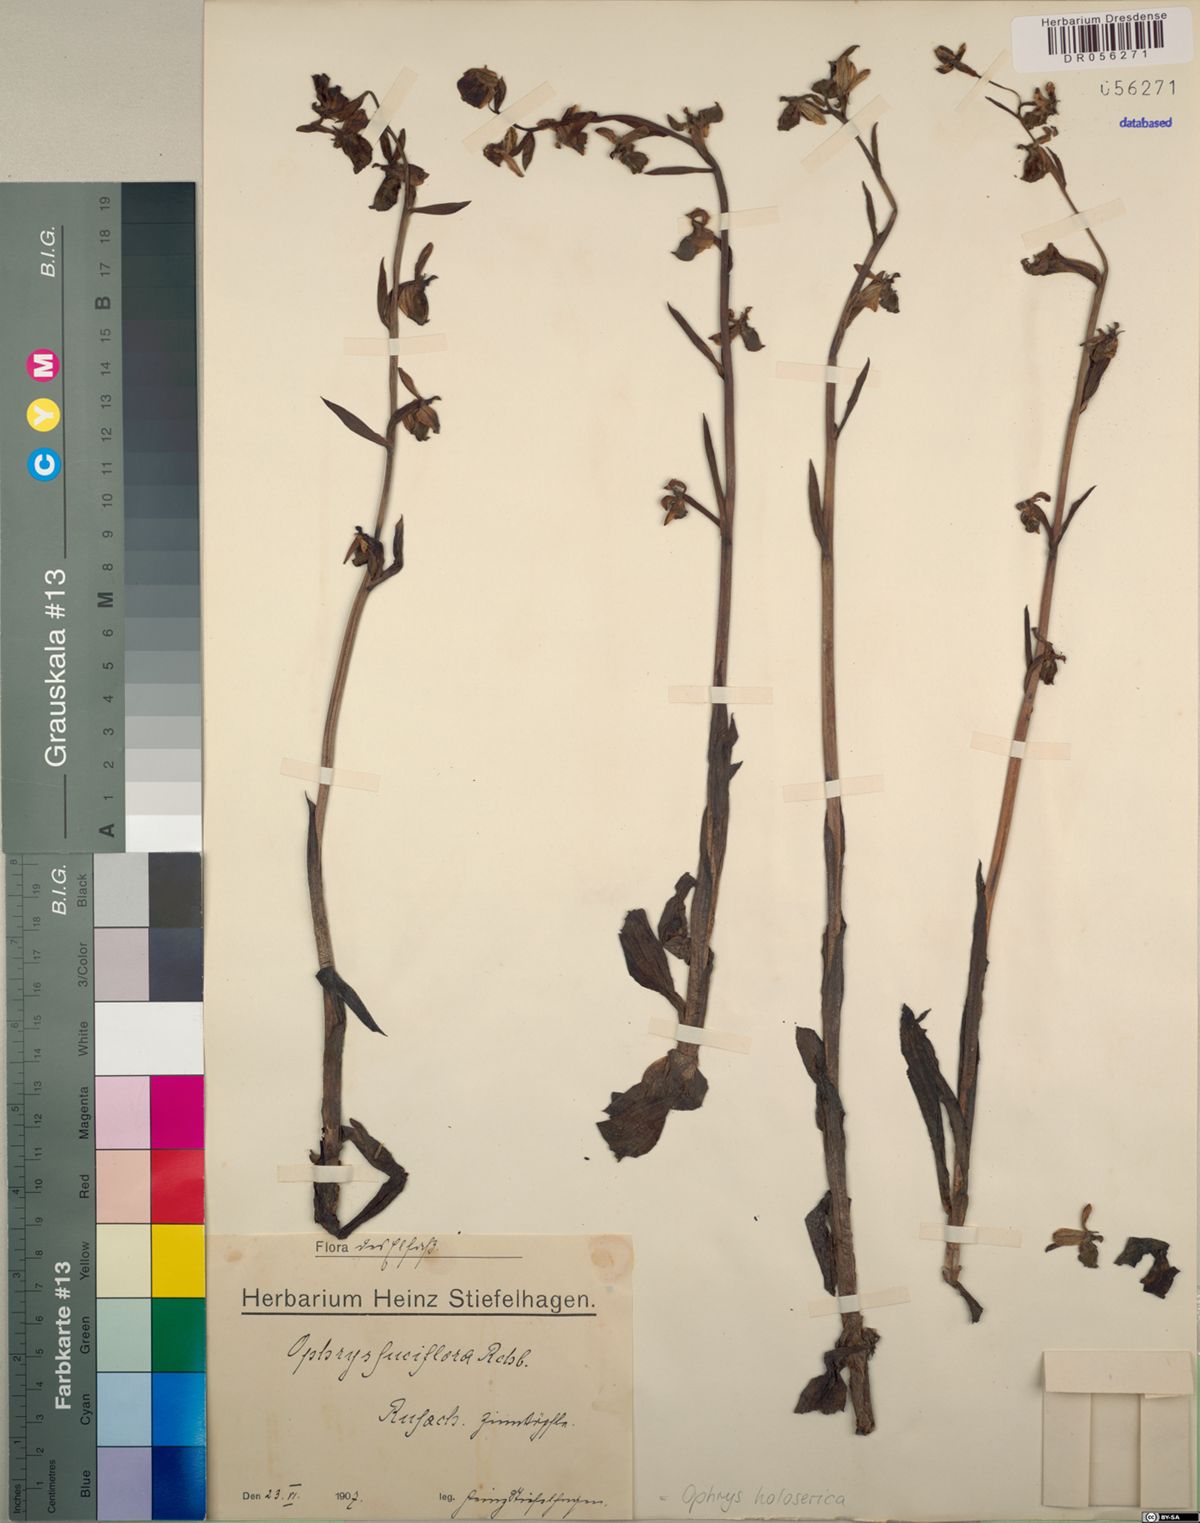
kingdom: Plantae
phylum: Tracheophyta
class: Liliopsida
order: Asparagales
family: Orchidaceae
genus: Ophrys
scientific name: Ophrys holosericea
